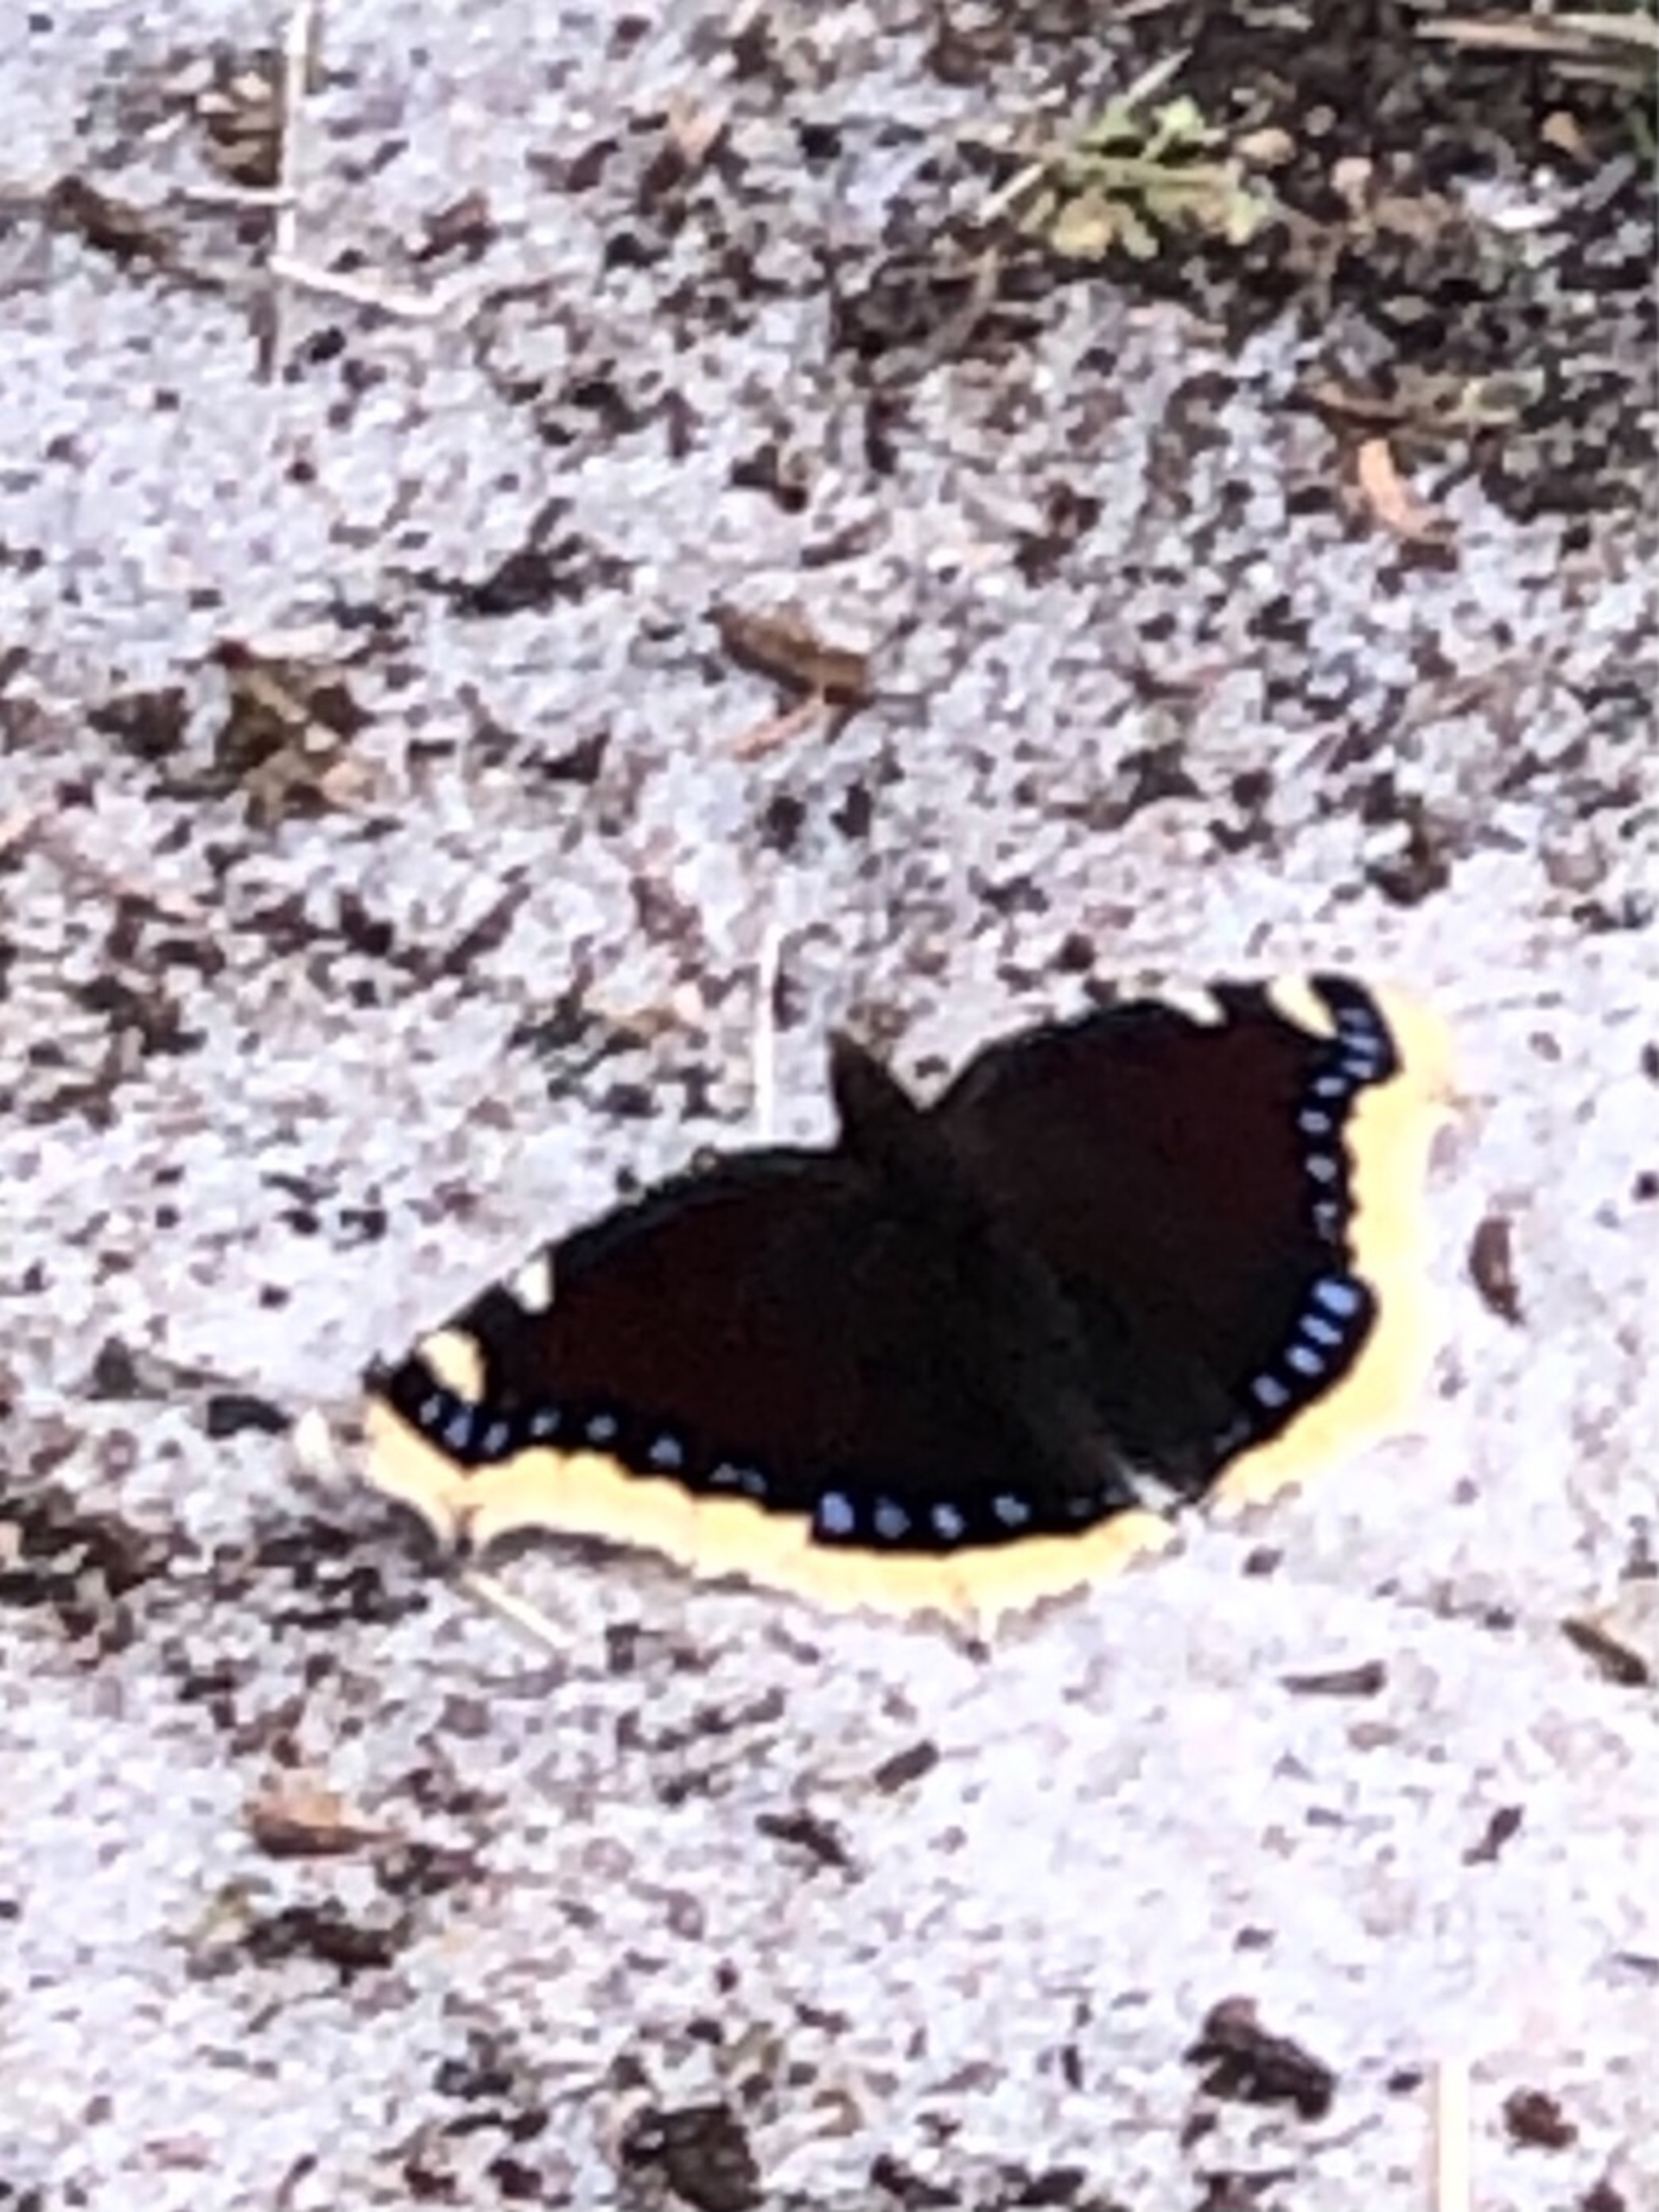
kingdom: Animalia
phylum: Arthropoda
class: Insecta
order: Lepidoptera
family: Nymphalidae
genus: Nymphalis
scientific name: Nymphalis antiopa
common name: Sørgekåbe
